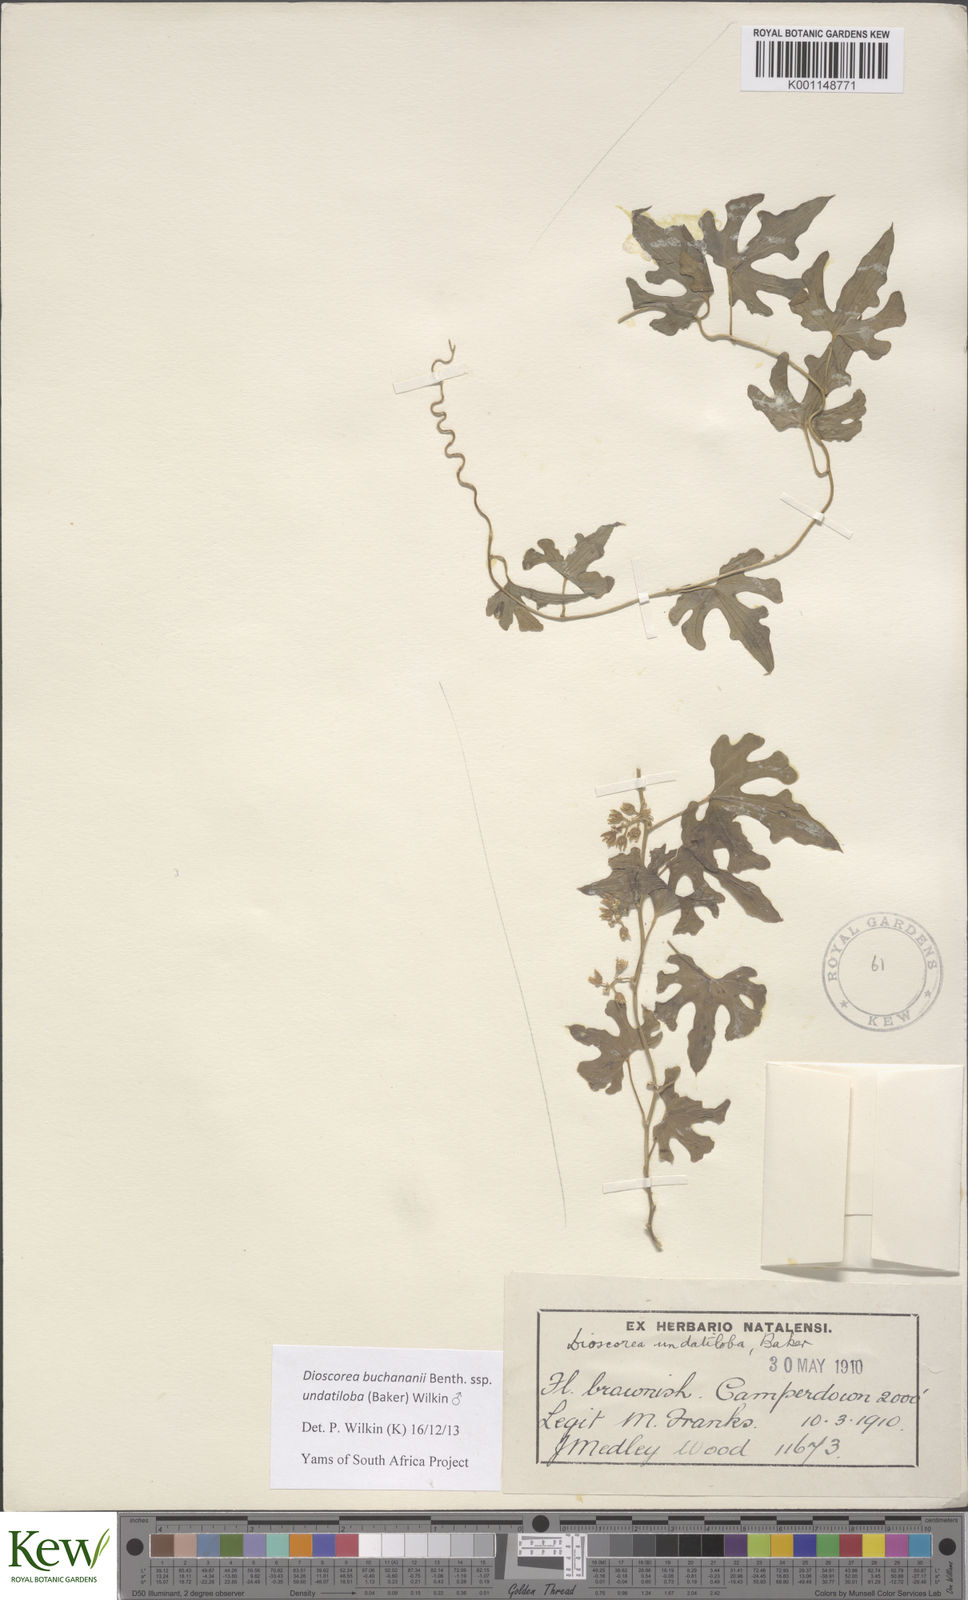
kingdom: Plantae
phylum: Tracheophyta
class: Liliopsida
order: Dioscoreales
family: Dioscoreaceae
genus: Dioscorea
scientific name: Dioscorea buchananii
